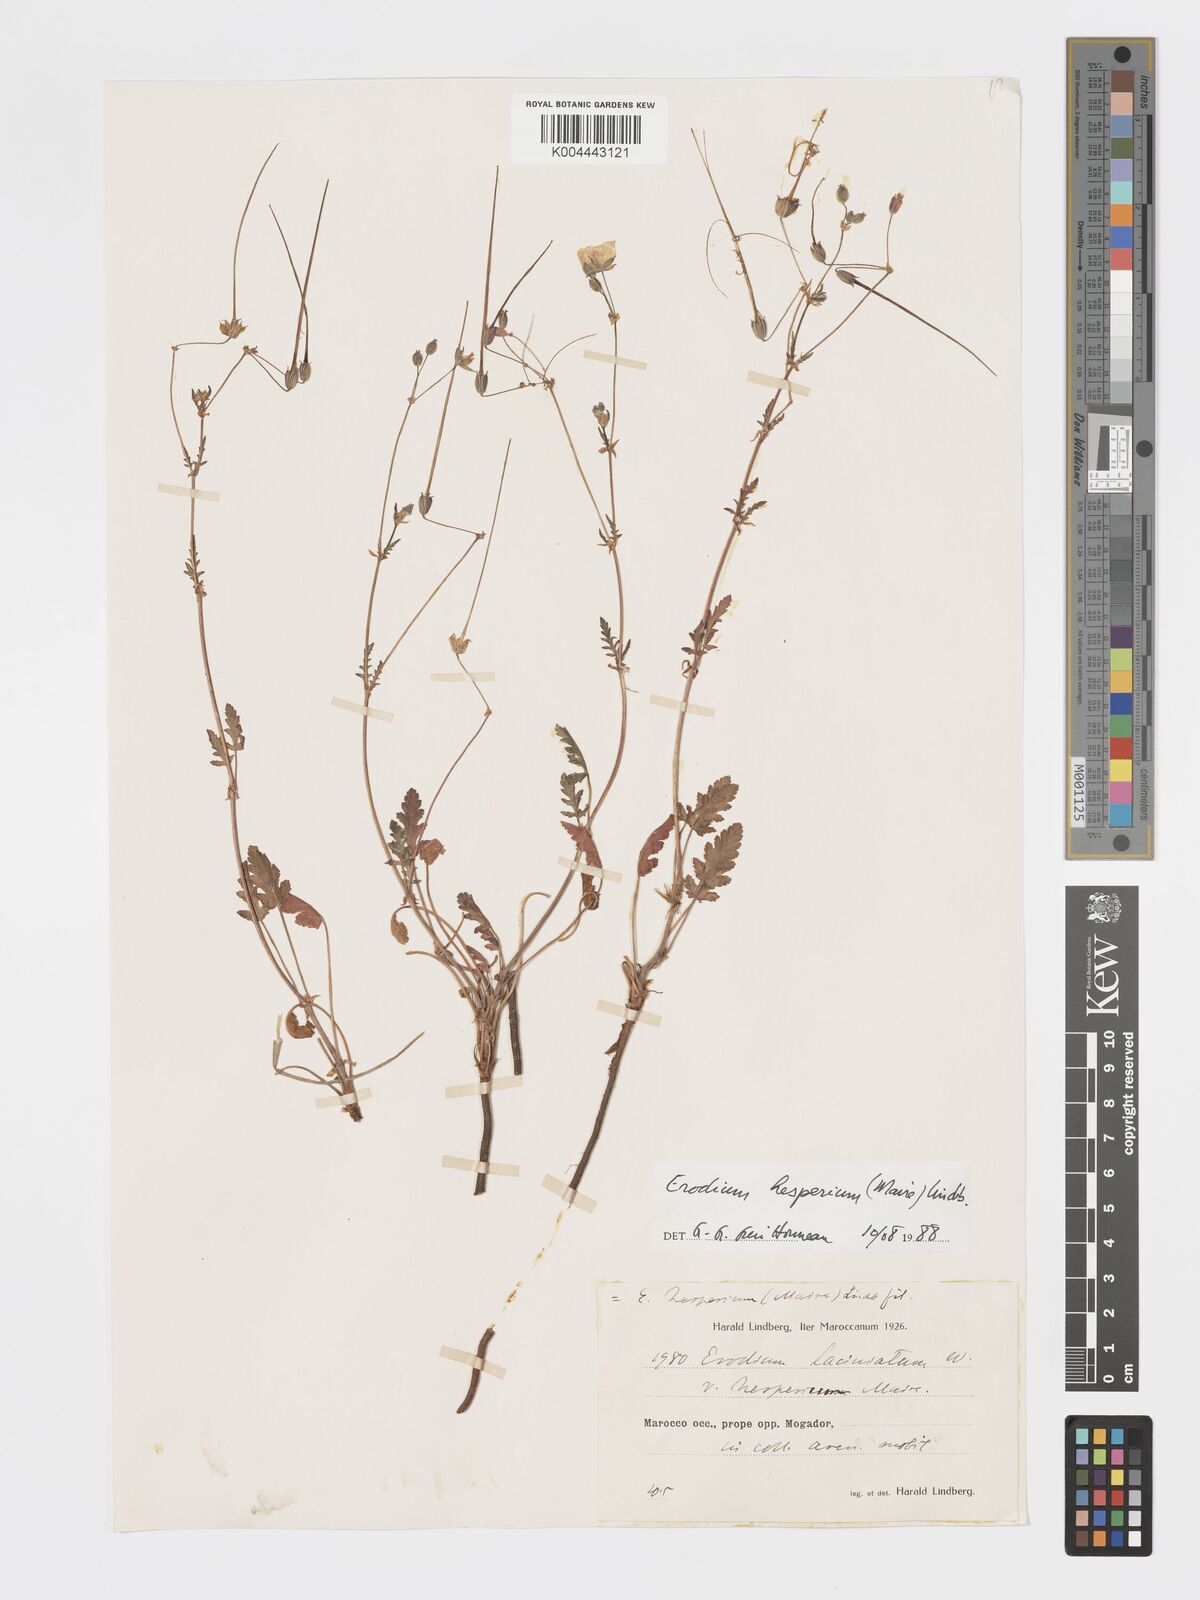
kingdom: Plantae
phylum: Tracheophyta
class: Magnoliopsida
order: Geraniales
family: Geraniaceae
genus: Erodium
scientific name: Erodium hesperium
